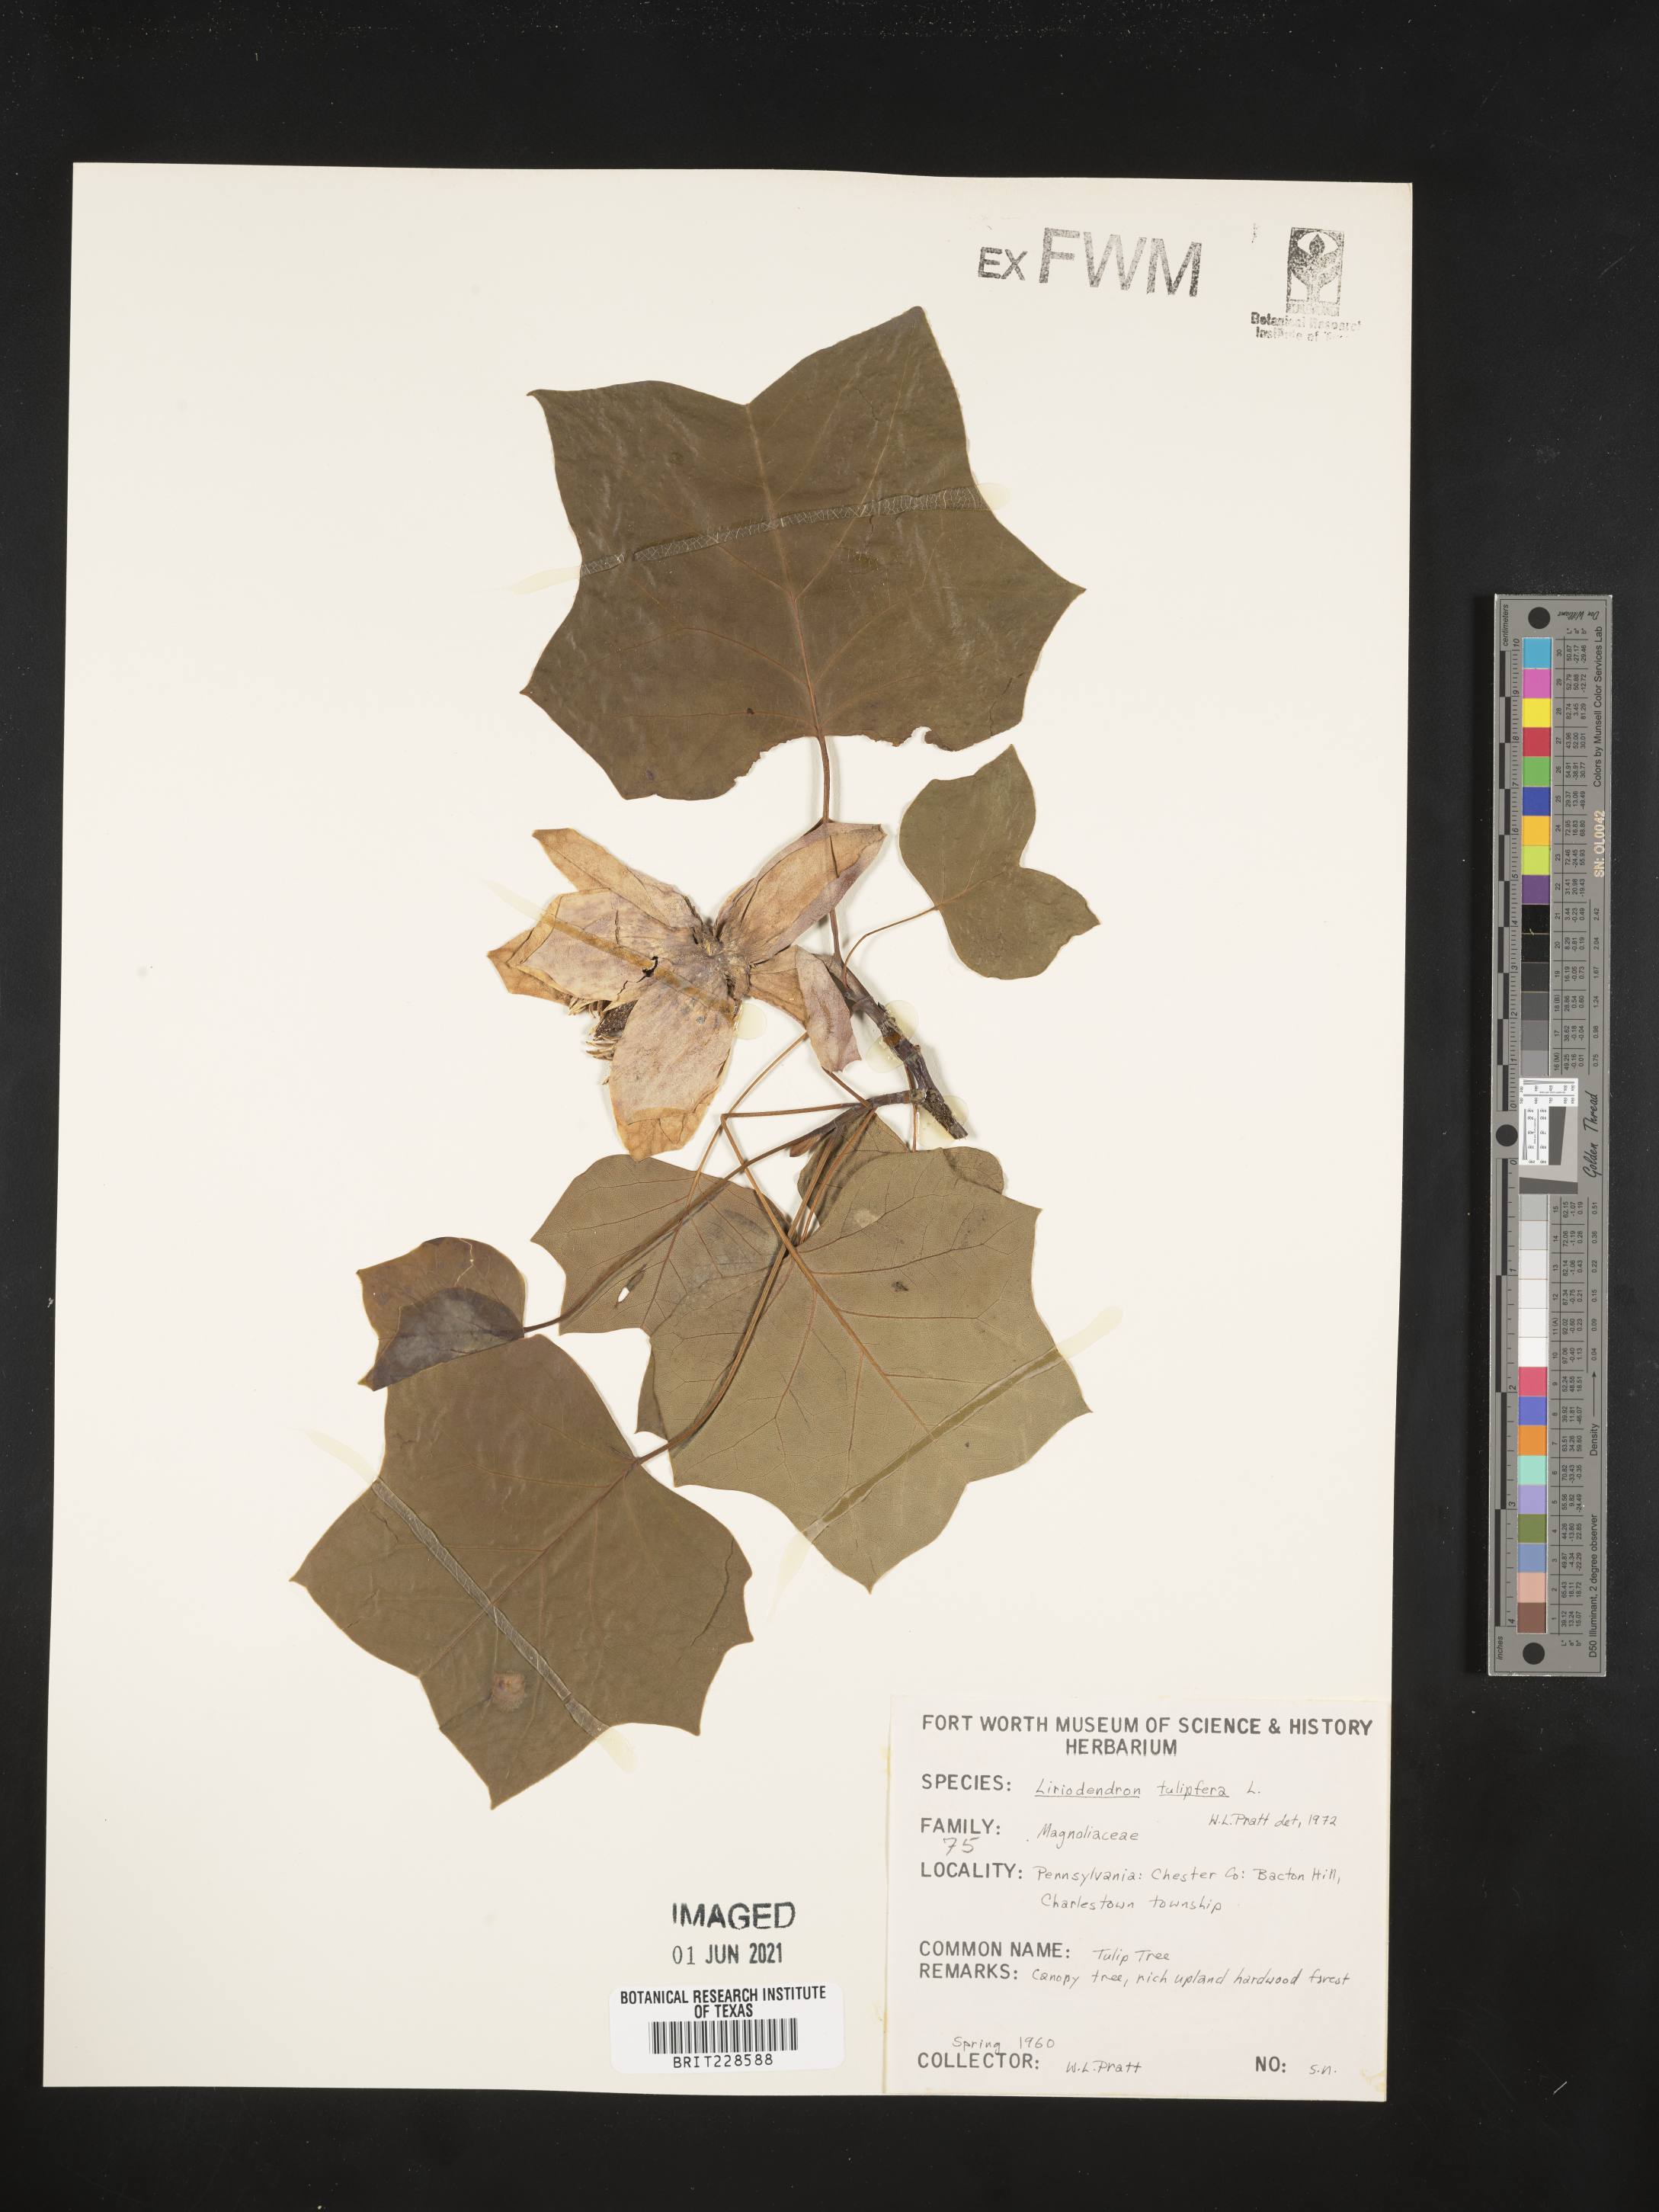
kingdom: Plantae
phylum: Tracheophyta
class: Magnoliopsida
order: Magnoliales
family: Magnoliaceae
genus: Liriodendron
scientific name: Liriodendron tulipifera
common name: Tulip tree
